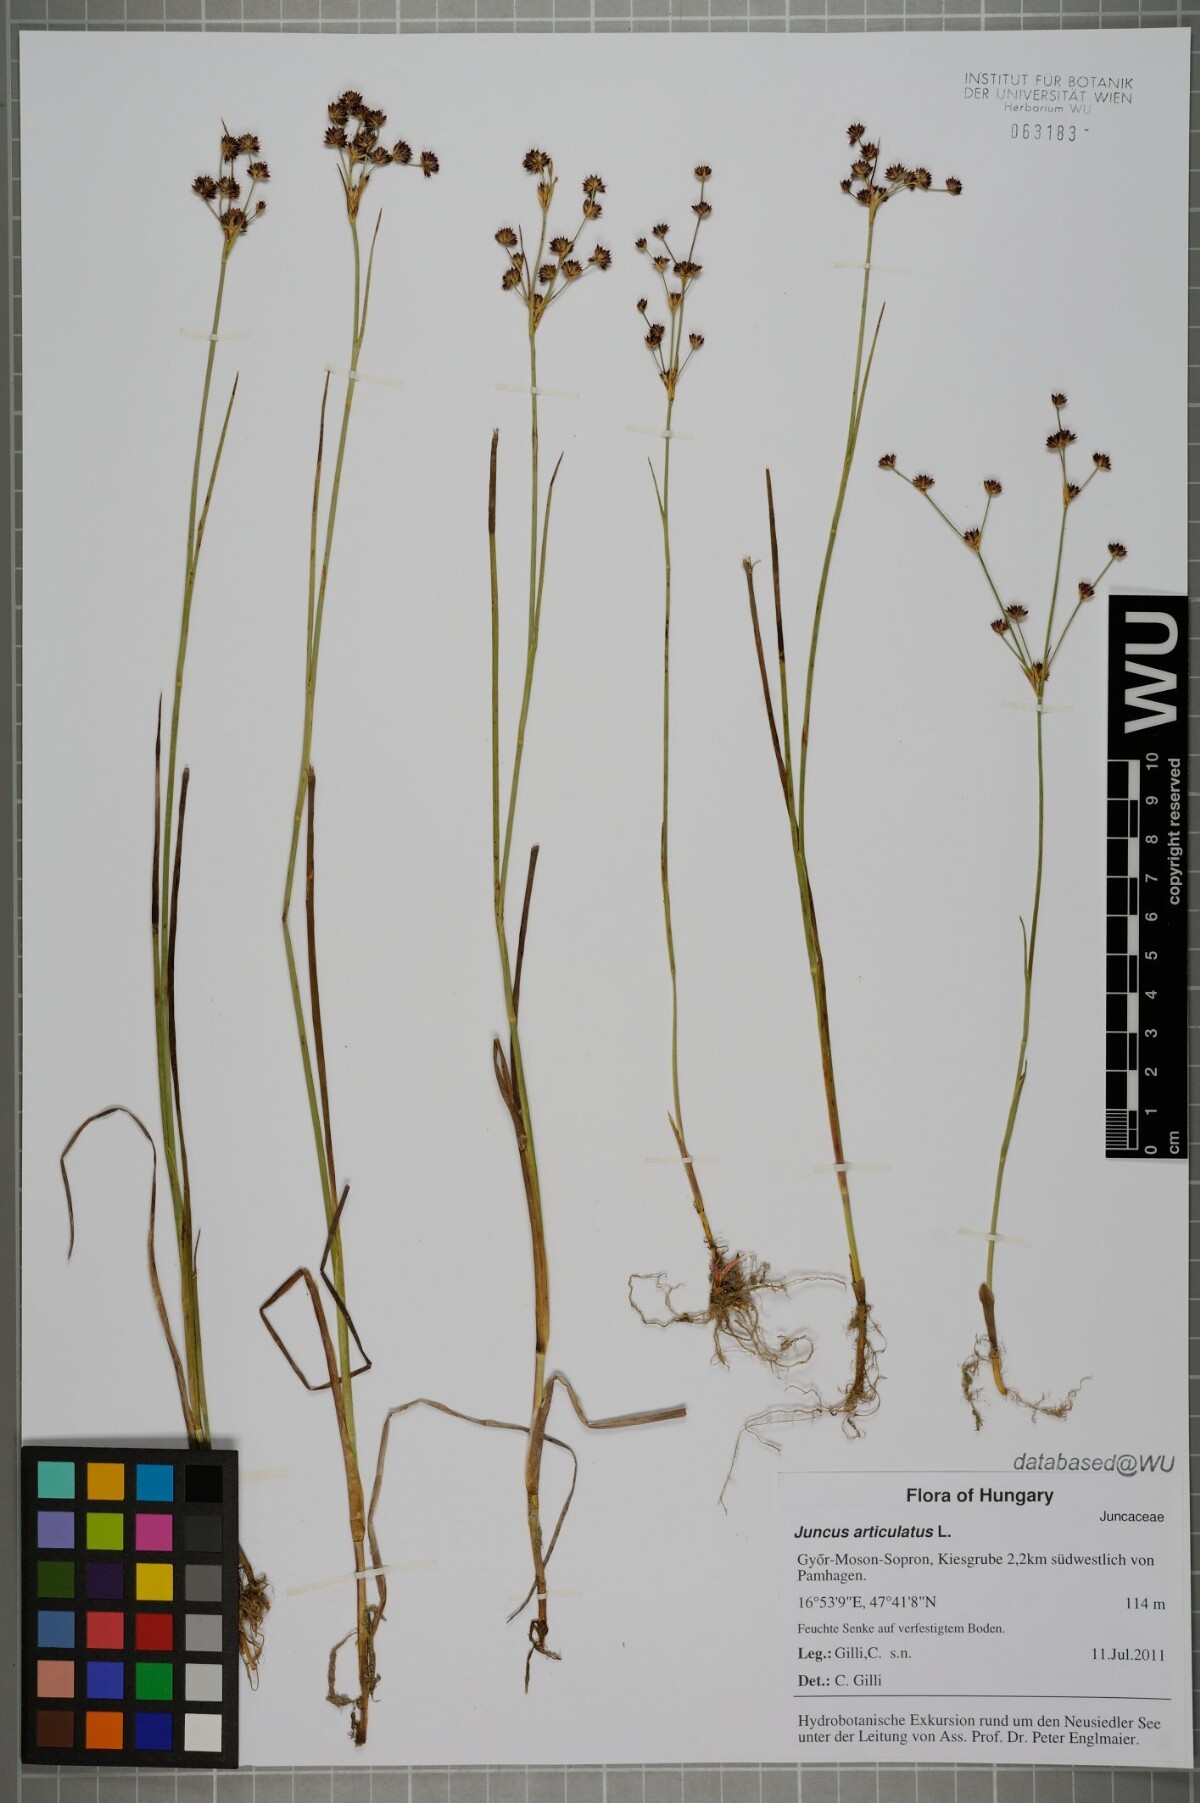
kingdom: Plantae
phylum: Tracheophyta
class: Liliopsida
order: Poales
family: Juncaceae
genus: Juncus
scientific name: Juncus articulatus
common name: Jointed rush
